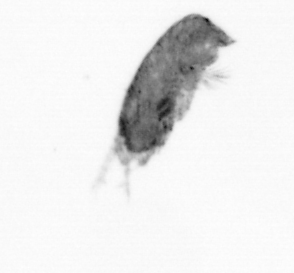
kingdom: Animalia
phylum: Arthropoda
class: Copepoda
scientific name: Copepoda
